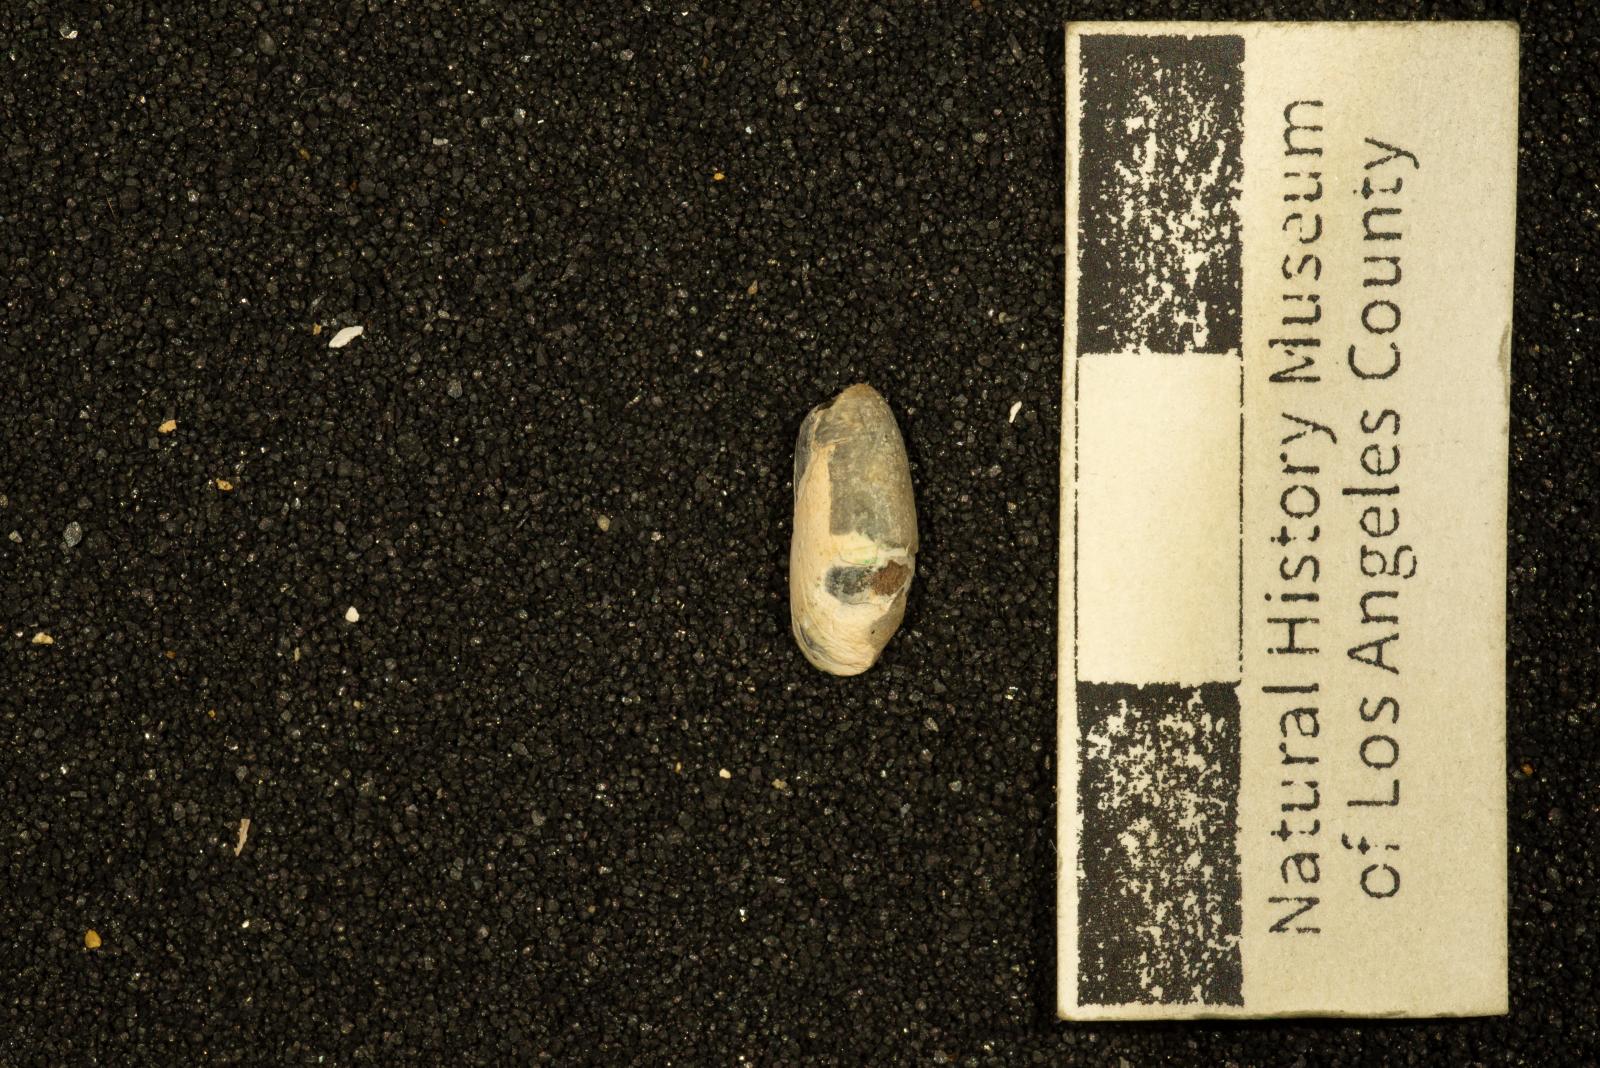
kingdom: Animalia
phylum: Mollusca
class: Gastropoda
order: Cephalaspidea
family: Cylichnidae
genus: Cylichna
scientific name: Cylichna
